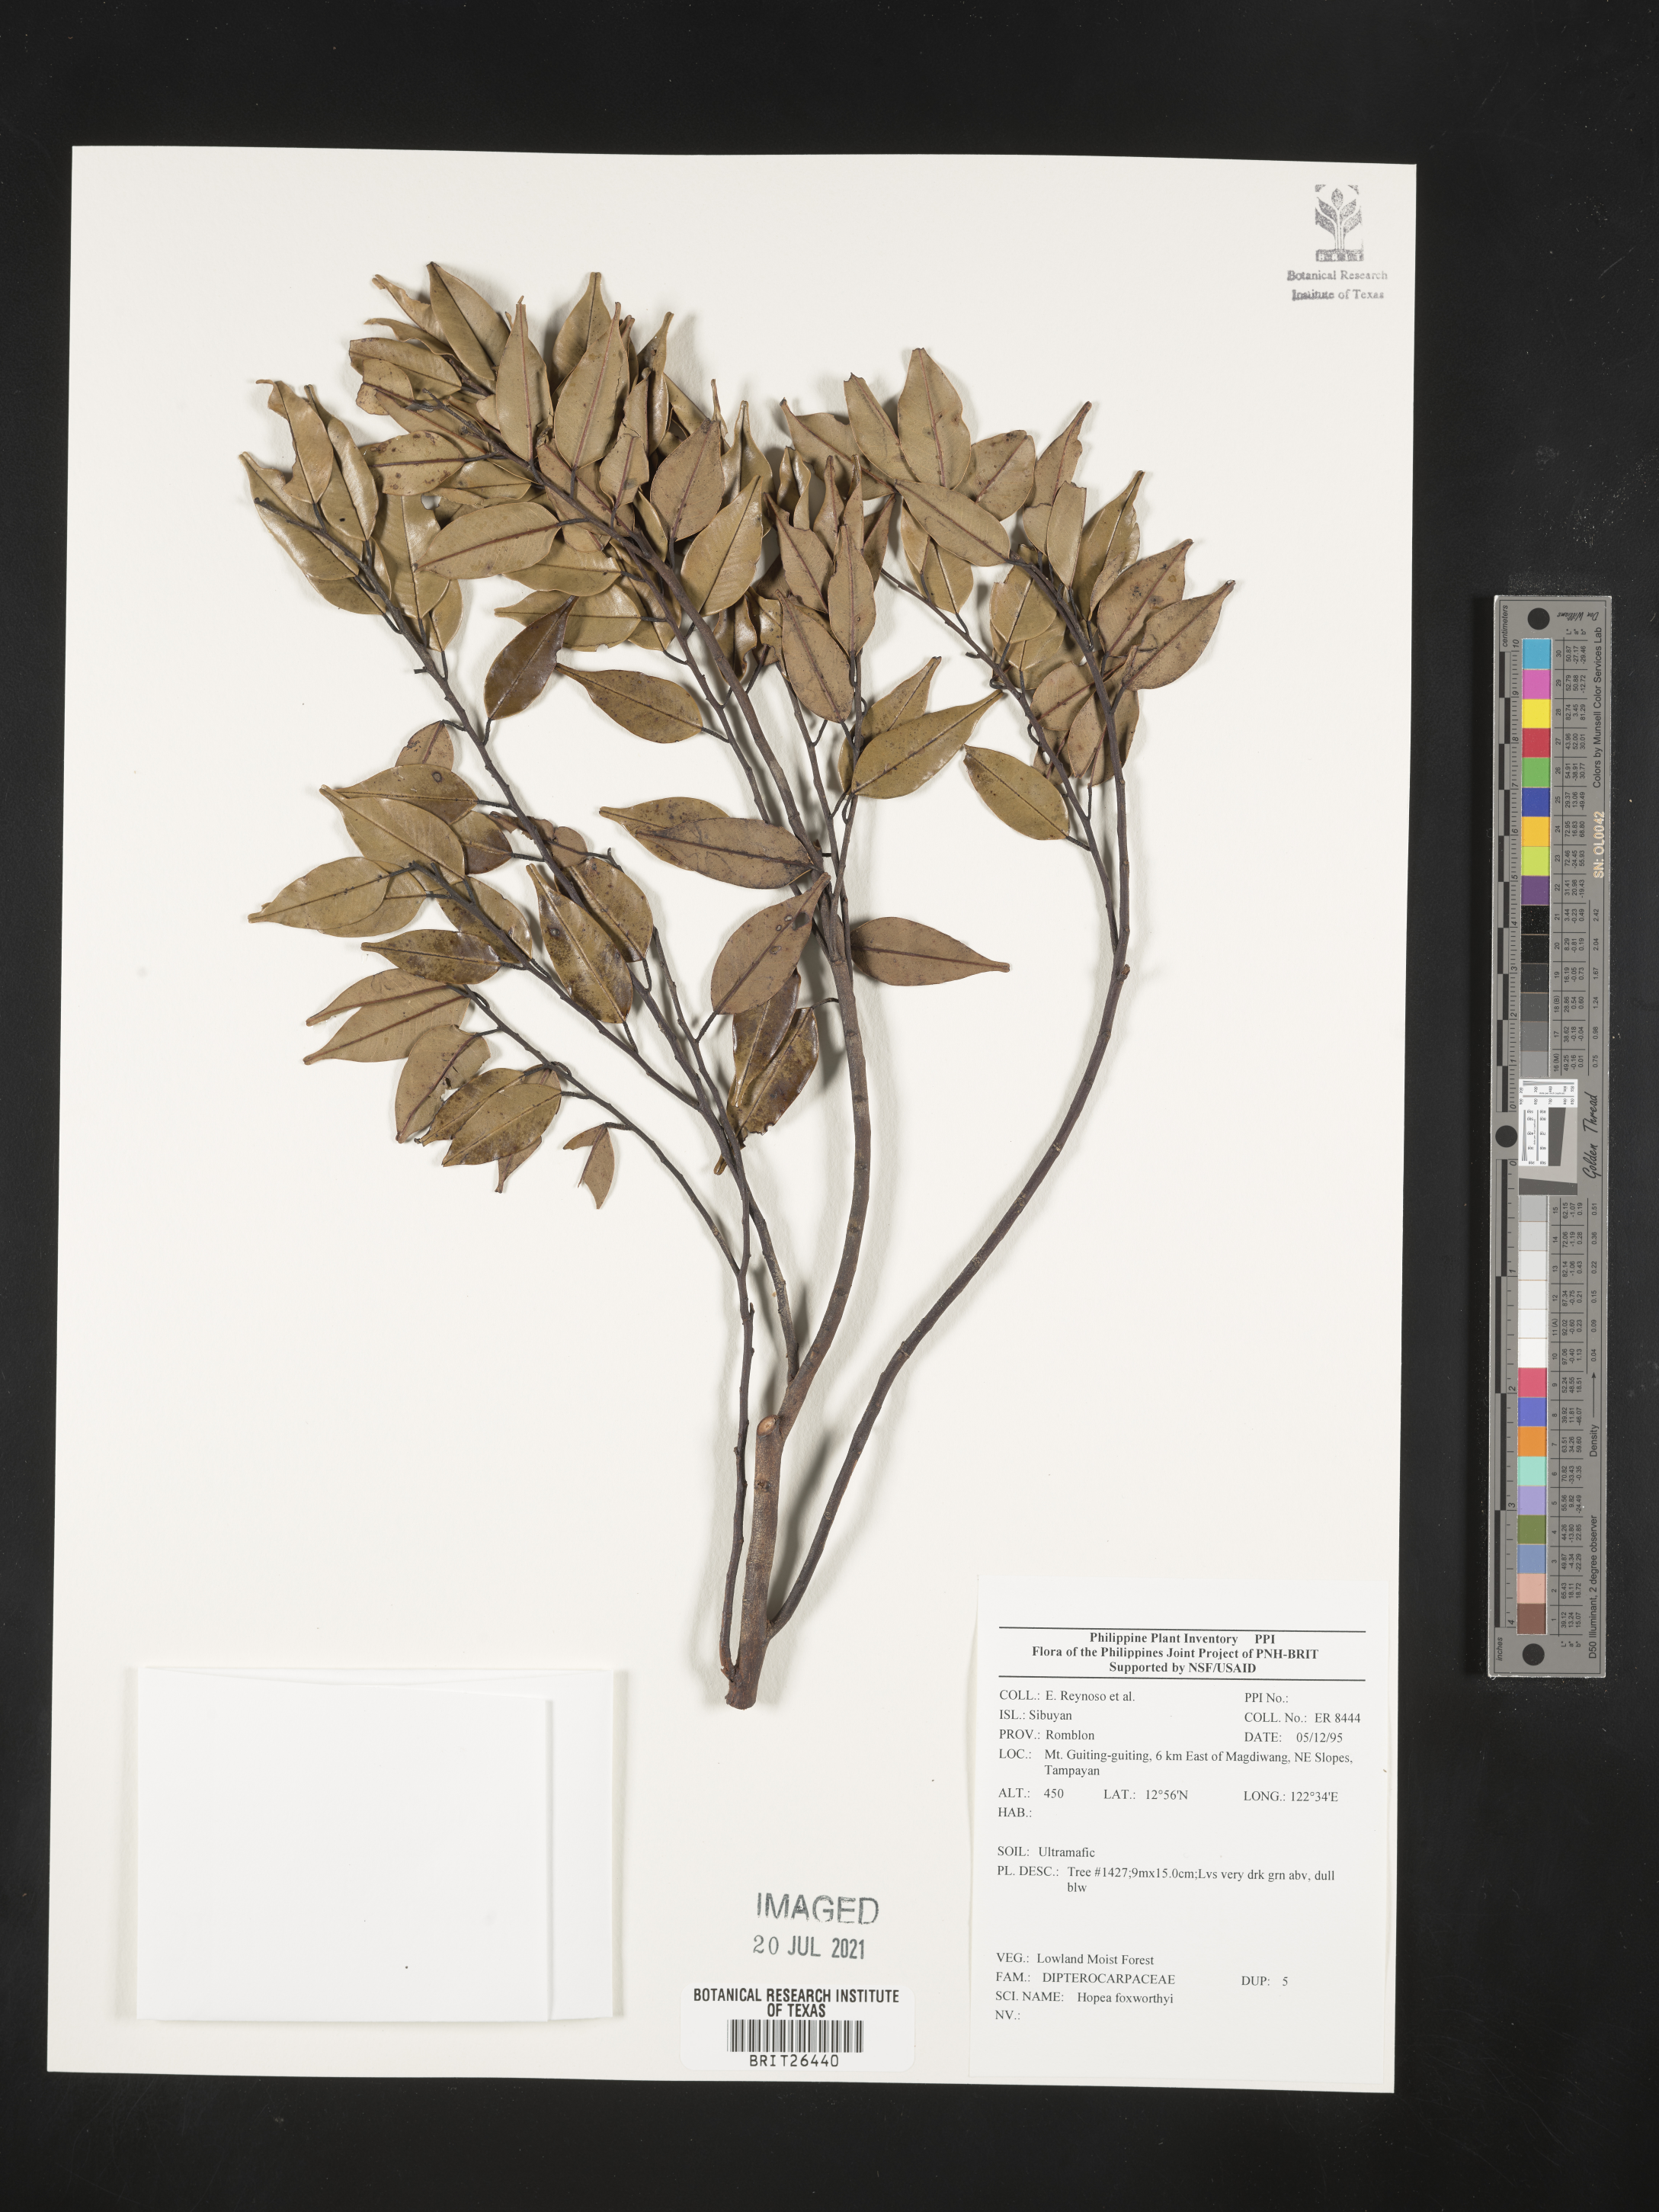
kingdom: Plantae
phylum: Tracheophyta
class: Magnoliopsida
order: Malvales
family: Dipterocarpaceae
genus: Hopea
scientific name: Hopea foxworthyi
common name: Dalingdingan
